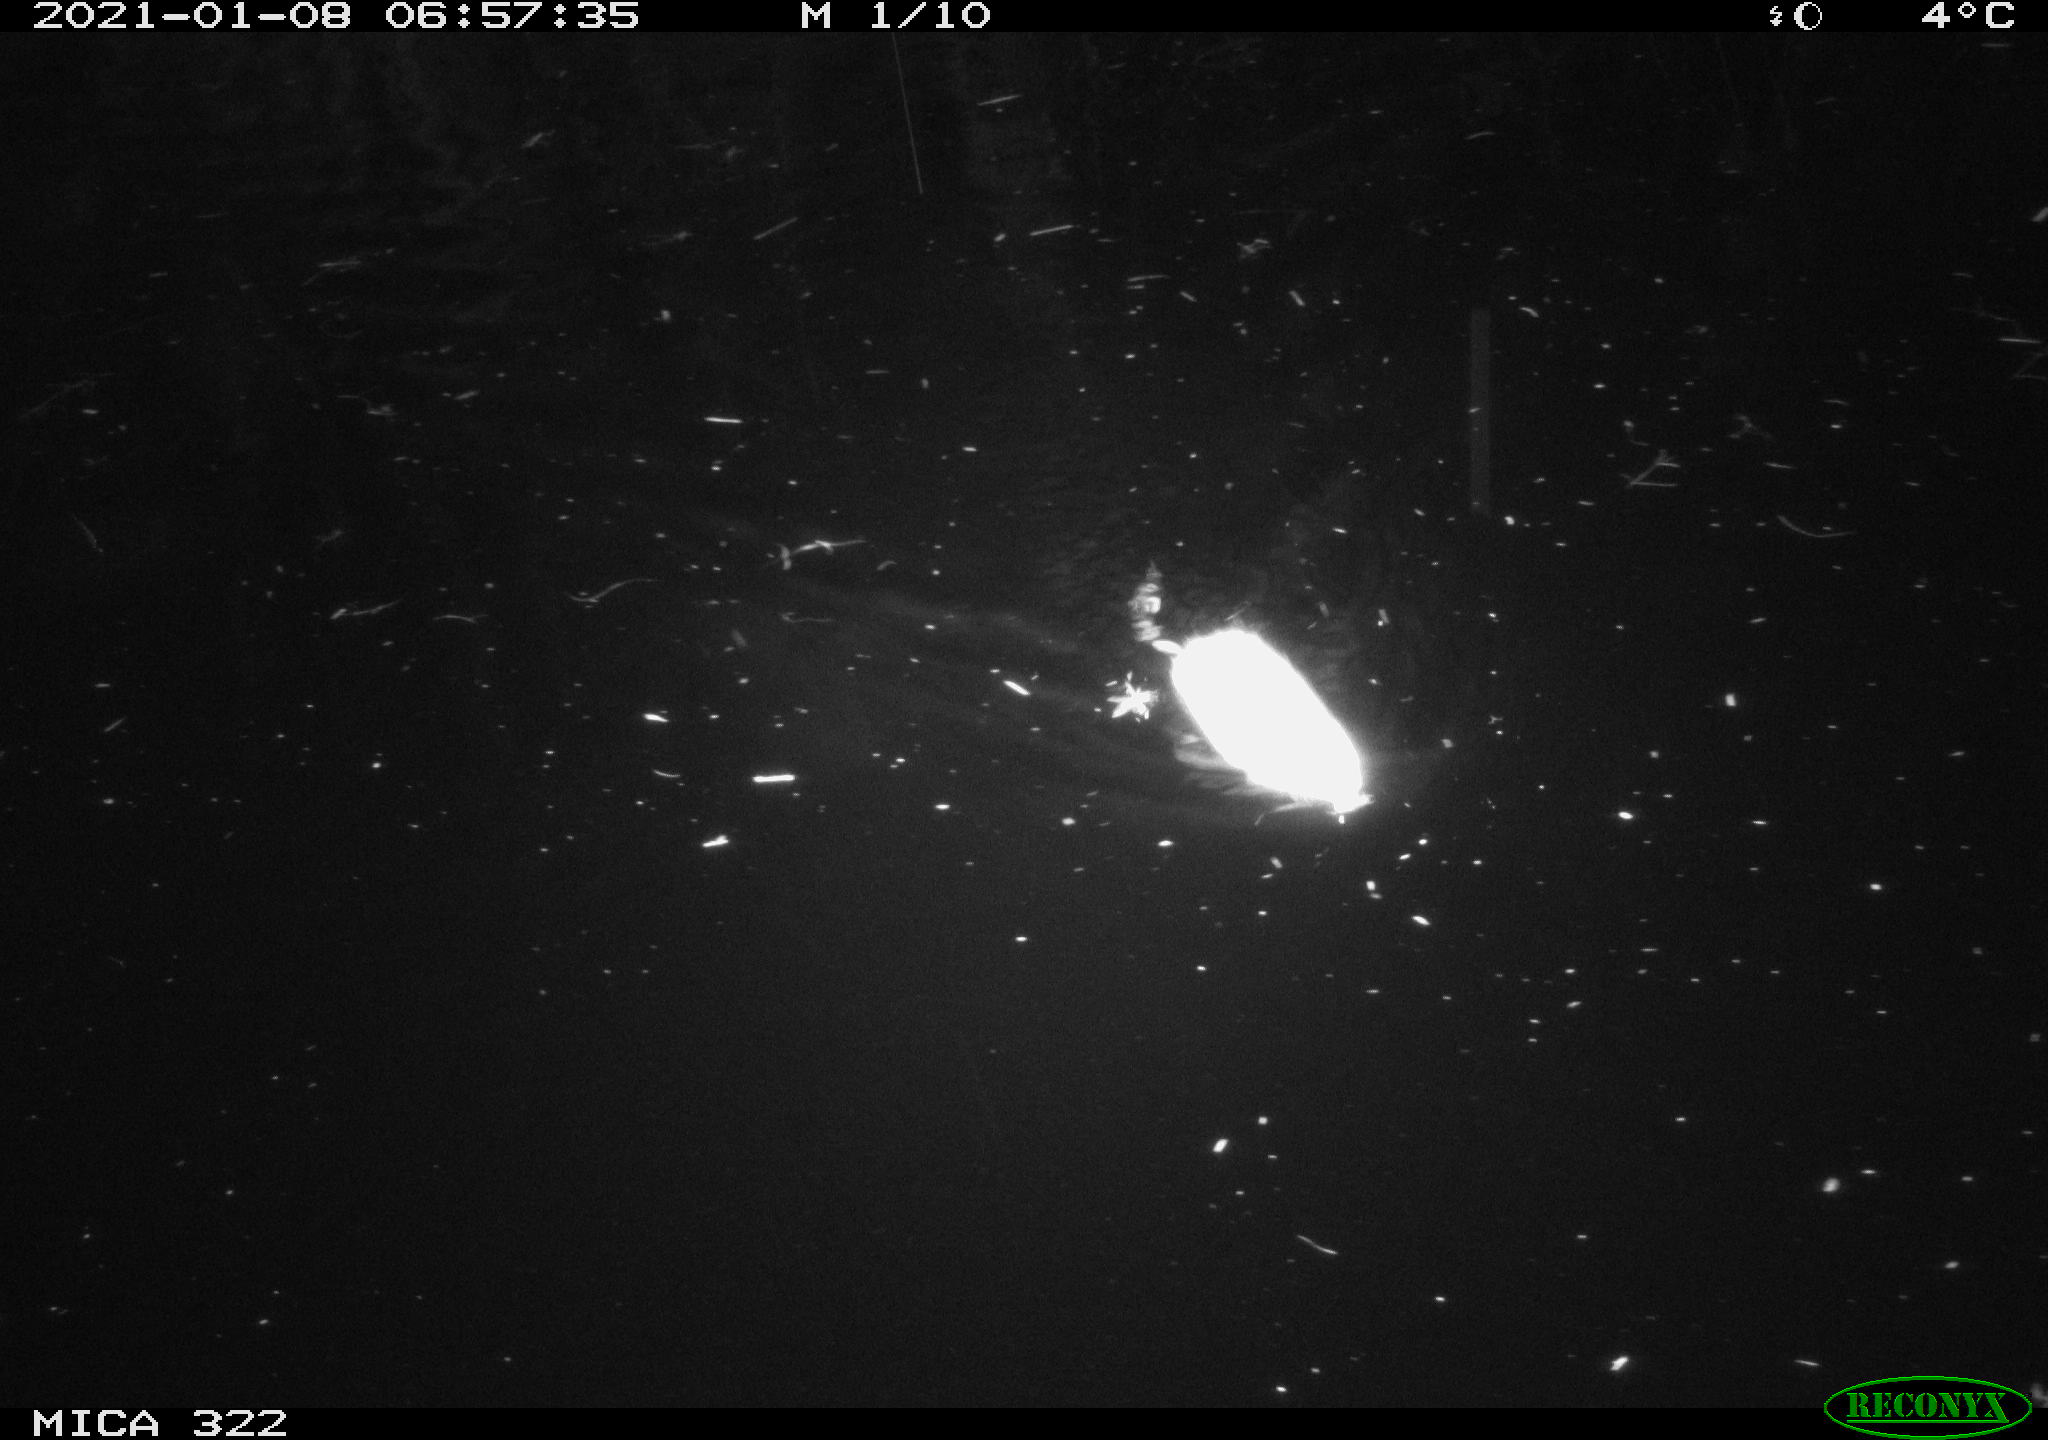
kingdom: Animalia
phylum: Chordata
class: Mammalia
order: Rodentia
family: Muridae
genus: Rattus
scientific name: Rattus norvegicus
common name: Brown rat
